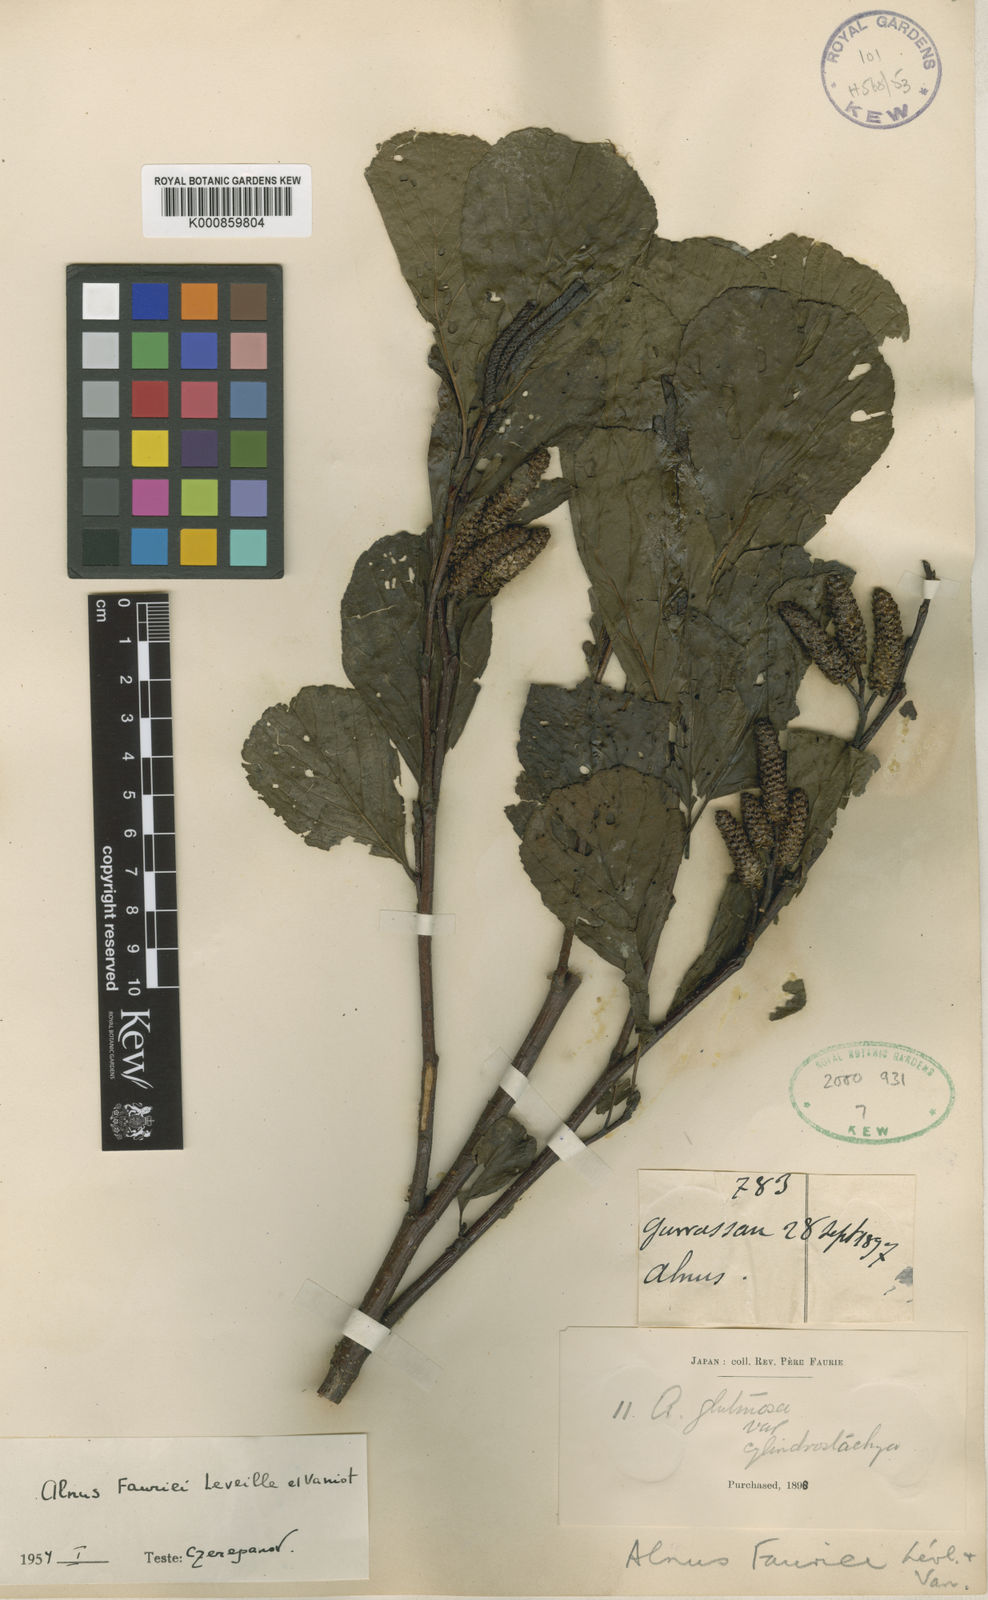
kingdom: Plantae
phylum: Tracheophyta
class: Magnoliopsida
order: Fagales
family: Betulaceae
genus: Alnus
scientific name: Alnus
